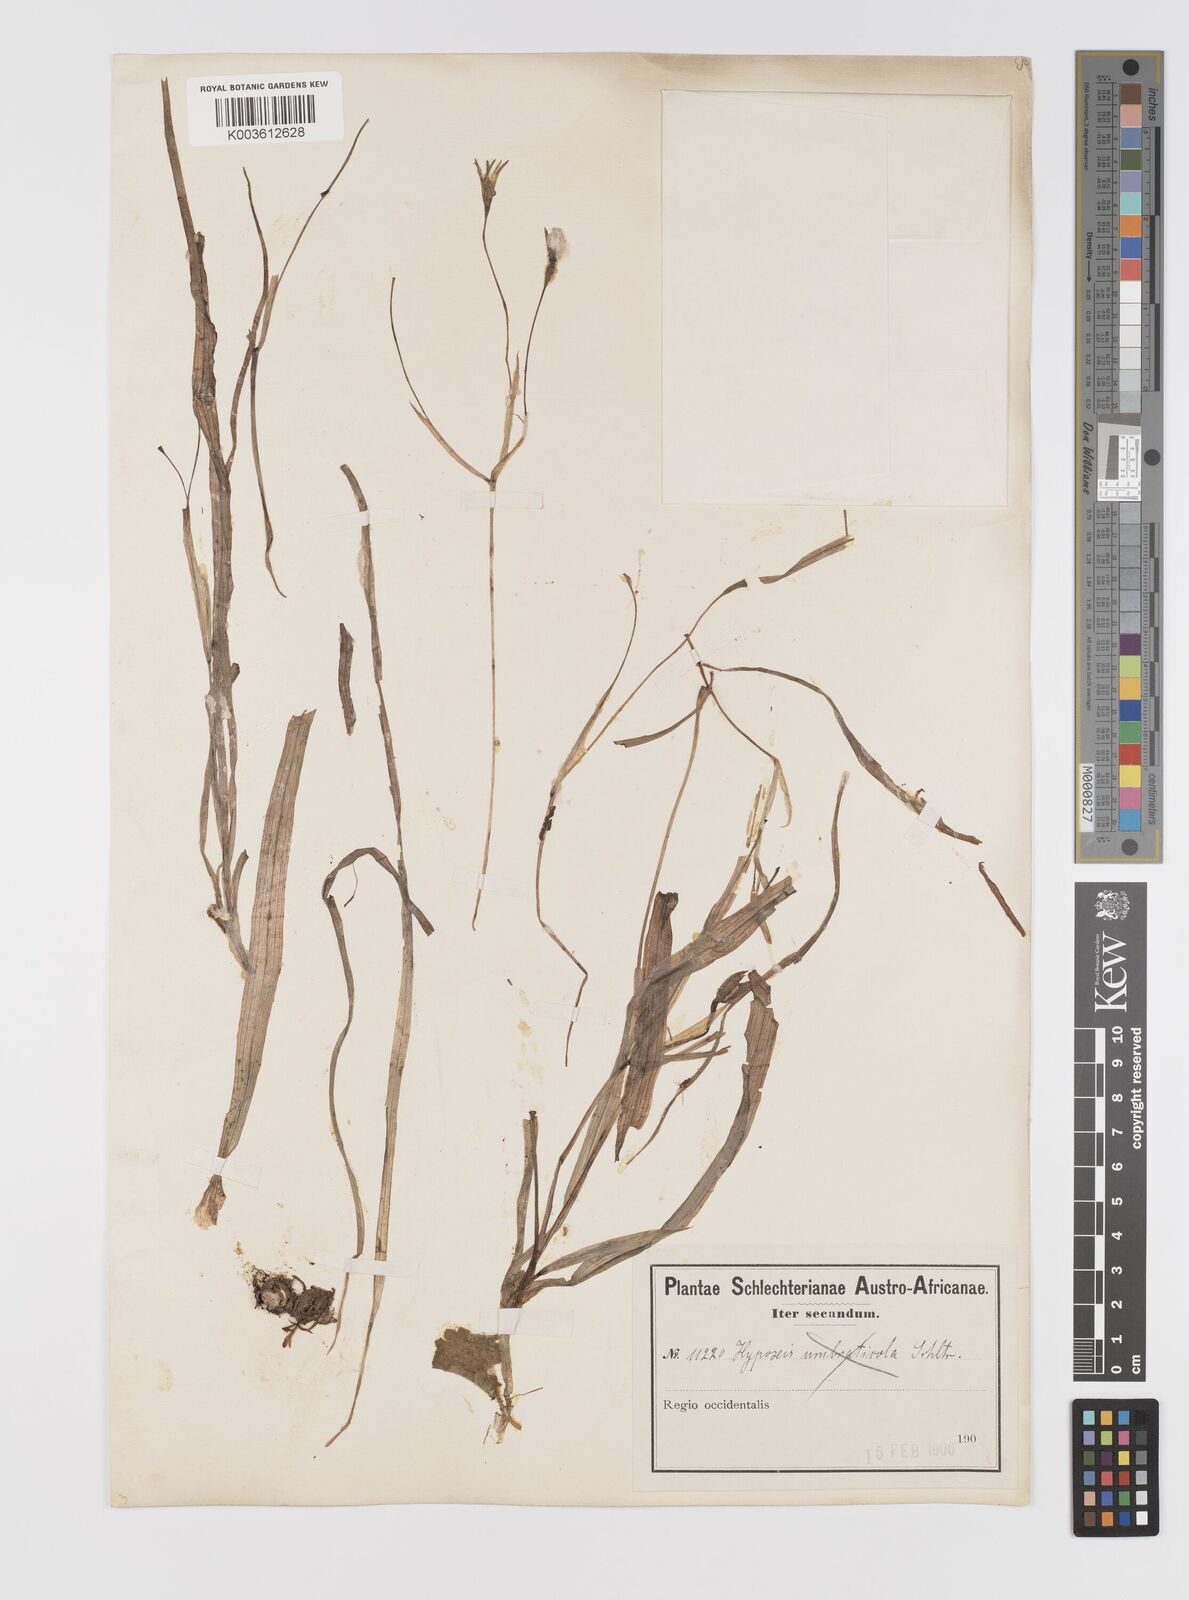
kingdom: Plantae
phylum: Tracheophyta
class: Liliopsida
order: Asparagales
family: Hypoxidaceae
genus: Hypoxis
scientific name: Hypoxis angustifolia
